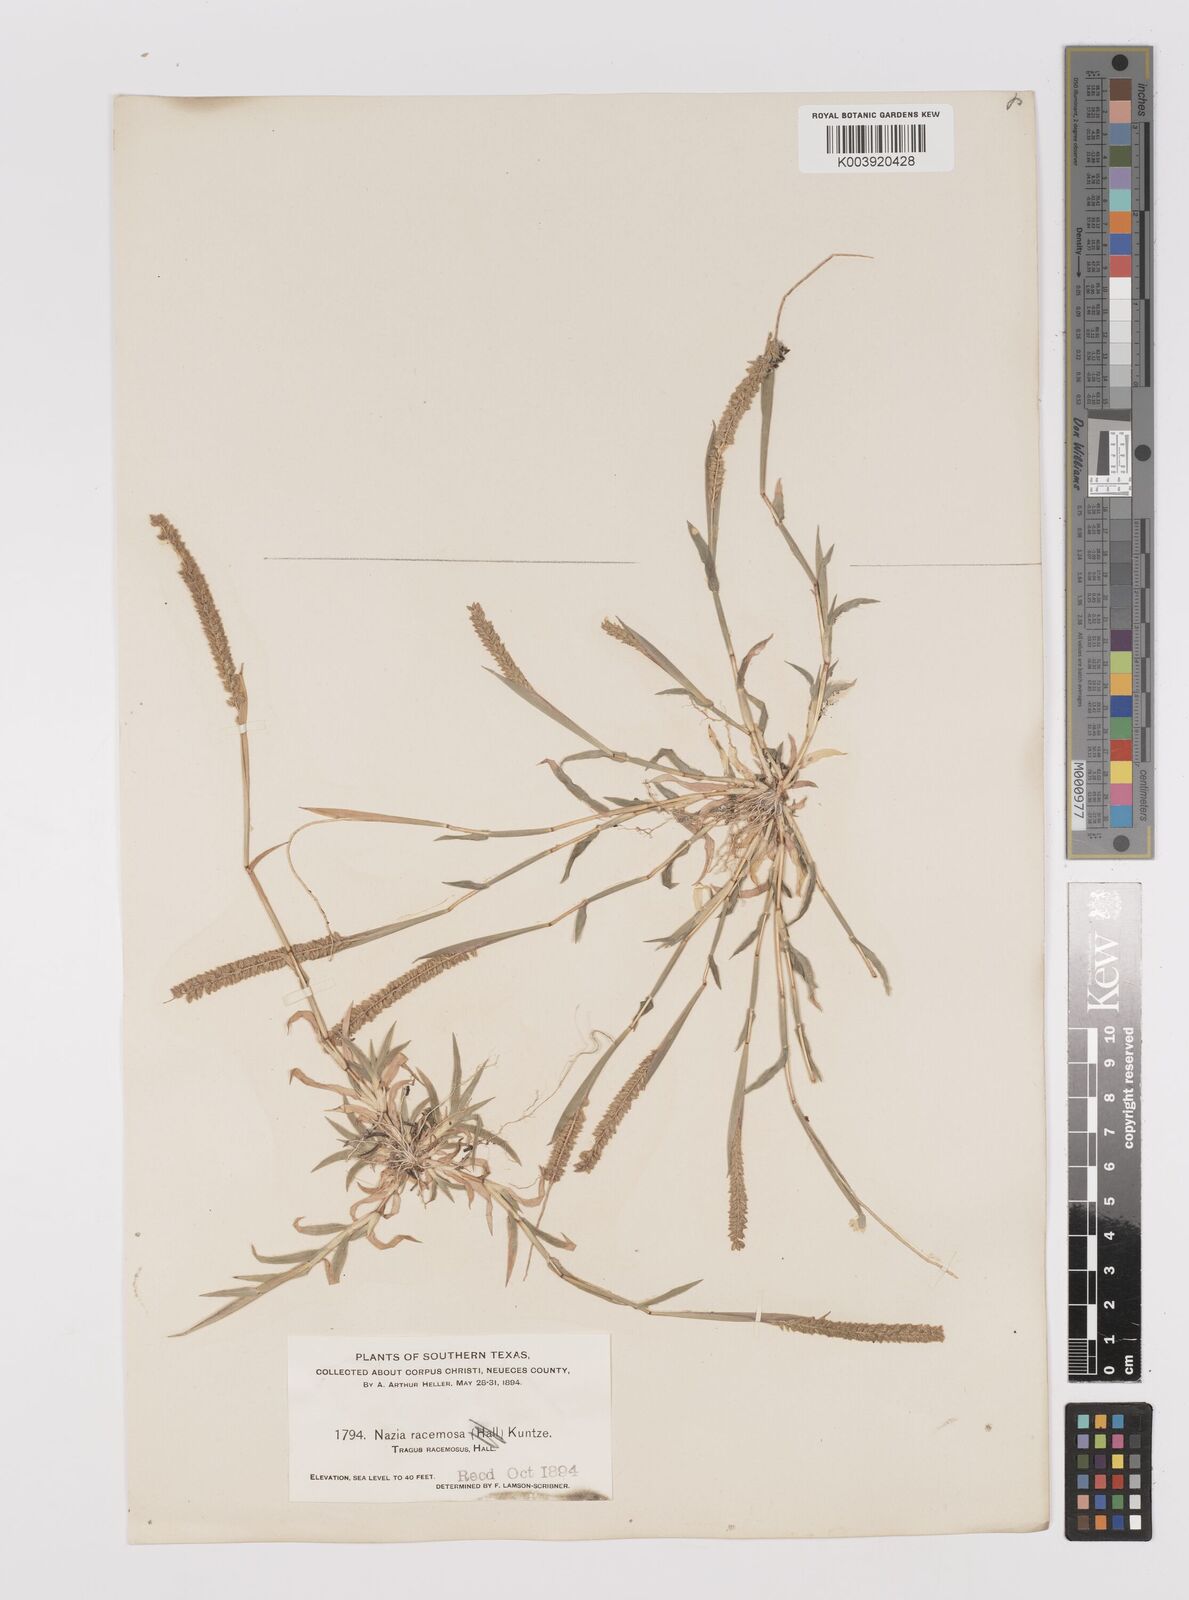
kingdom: Plantae
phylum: Tracheophyta
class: Liliopsida
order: Poales
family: Poaceae
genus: Tragus
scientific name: Tragus berteronianus
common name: African bur-grass
